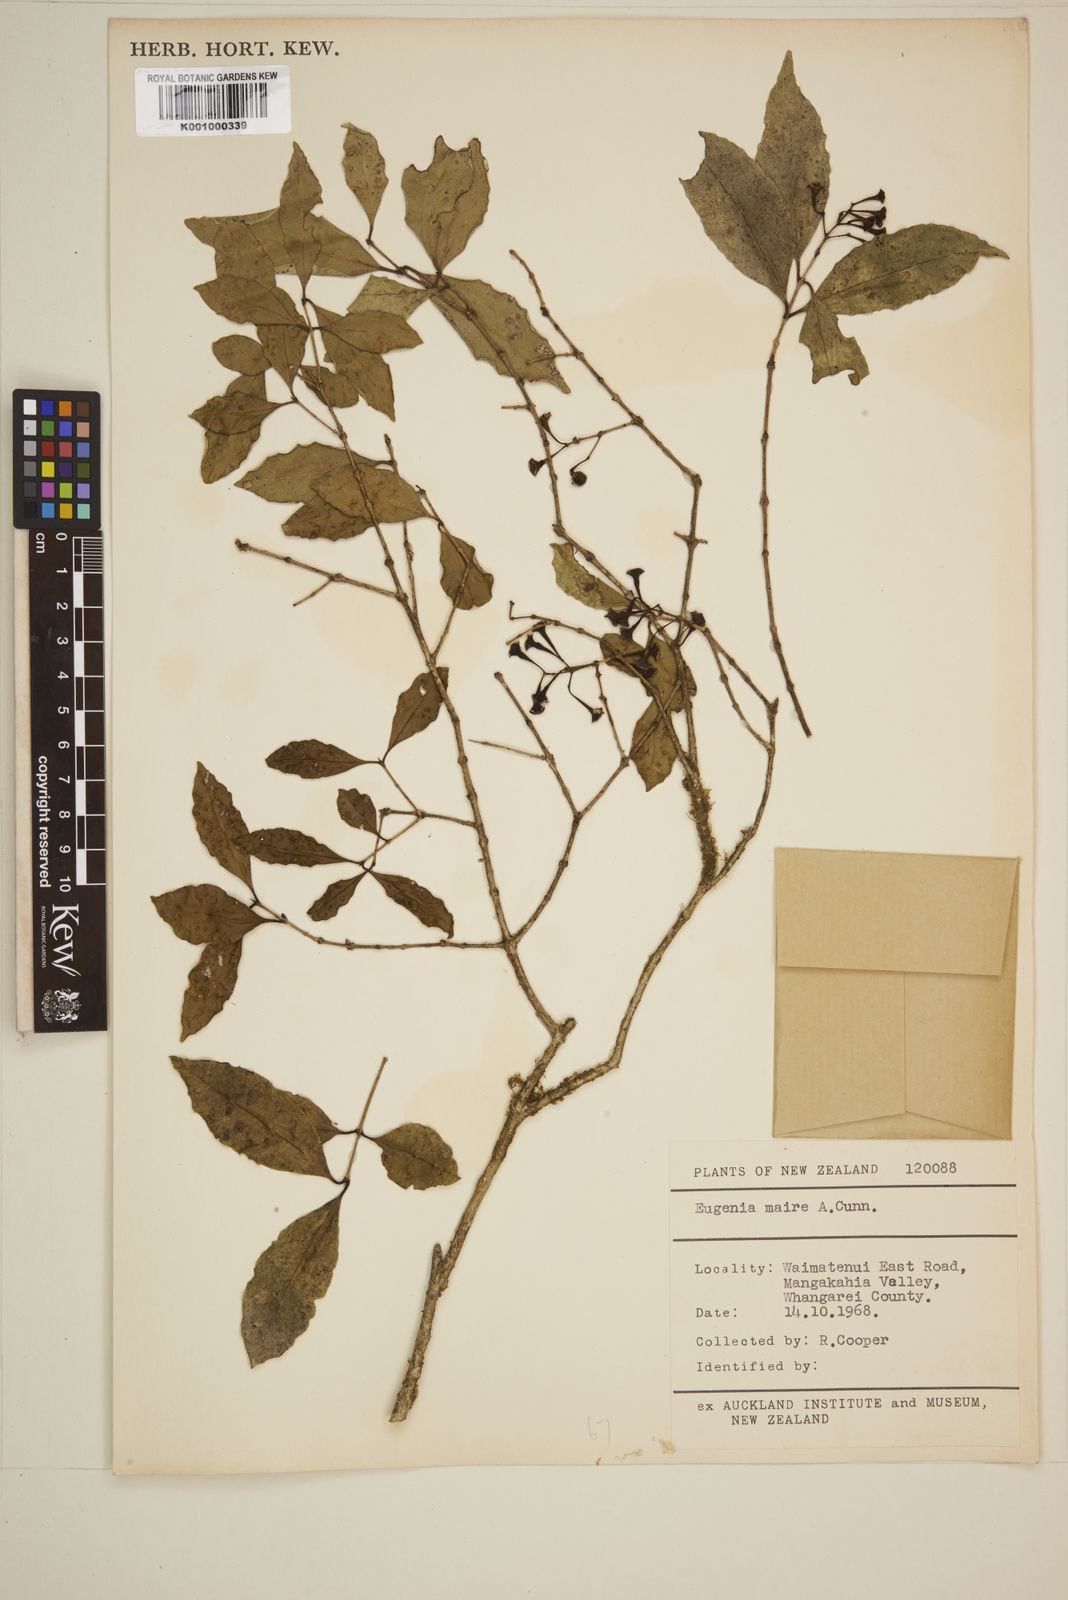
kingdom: Plantae
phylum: Tracheophyta
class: Magnoliopsida
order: Myrtales
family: Myrtaceae
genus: Syzygium
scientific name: Syzygium maire
